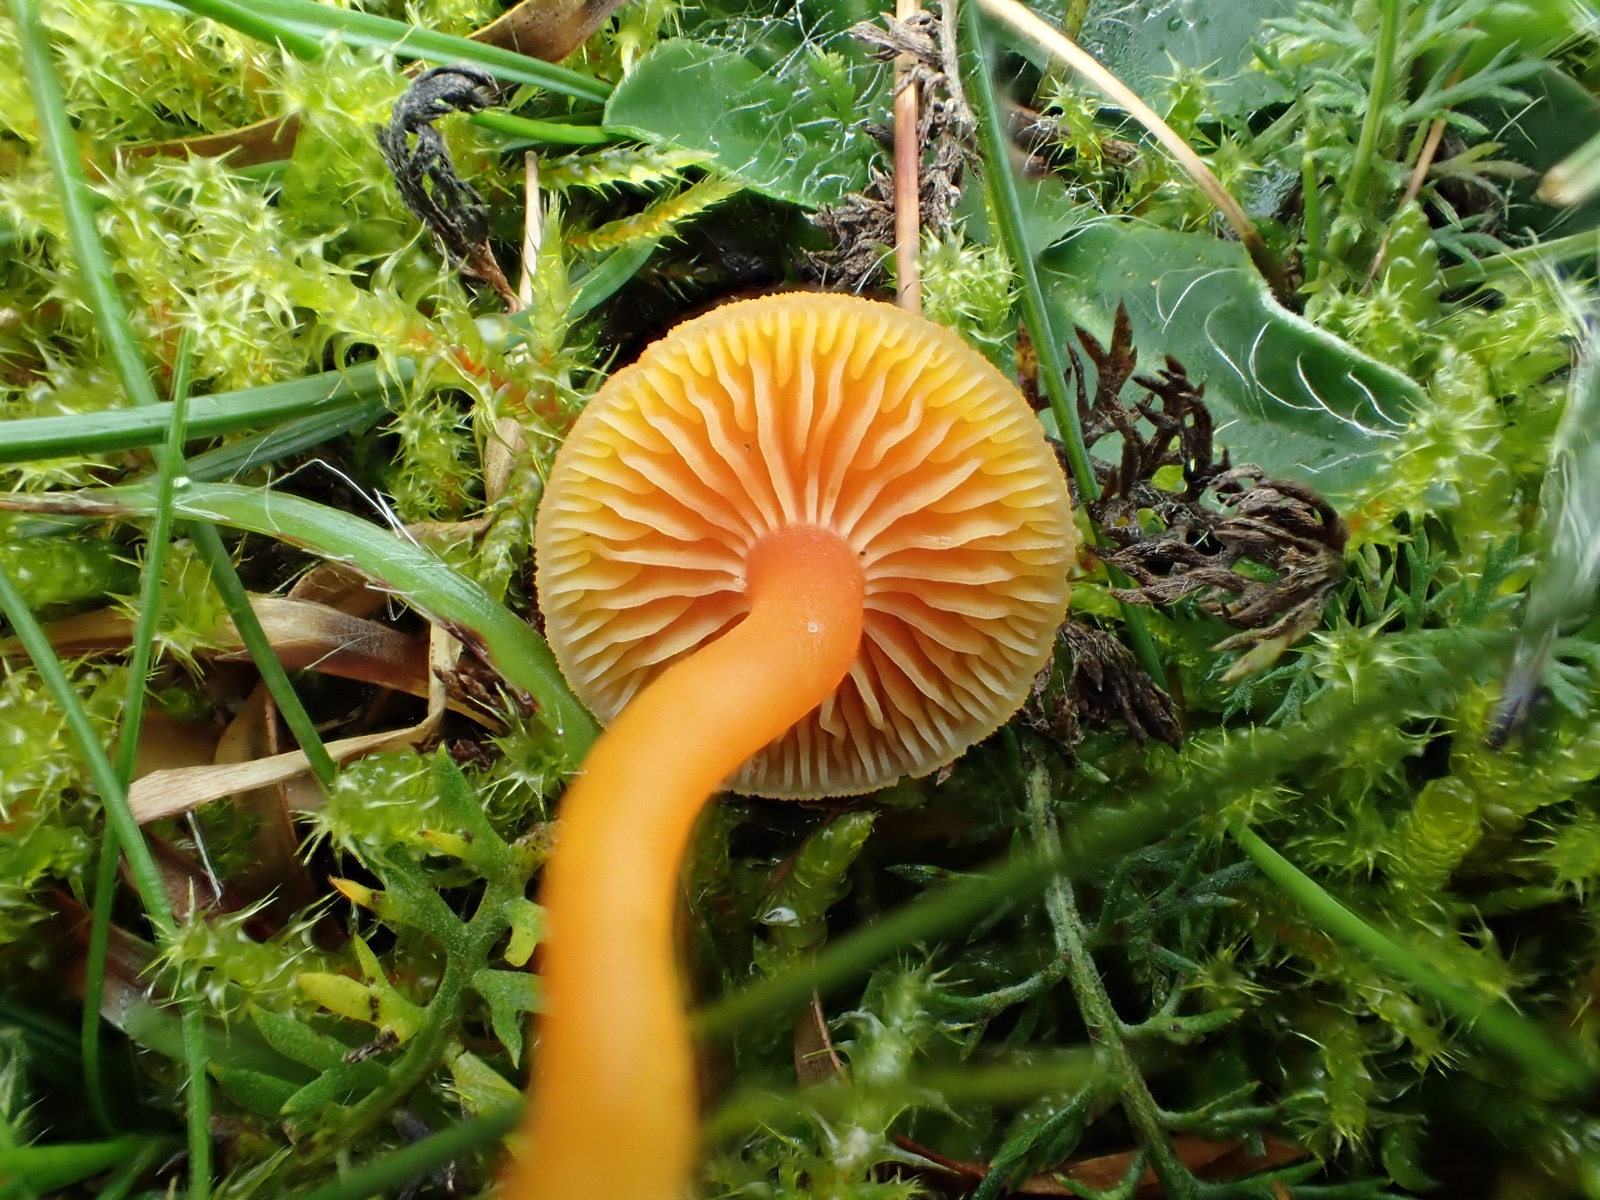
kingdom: Fungi
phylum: Basidiomycota
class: Agaricomycetes
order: Agaricales
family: Hygrophoraceae
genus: Hygrocybe
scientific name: Hygrocybe miniata
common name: mønje-vokshat
